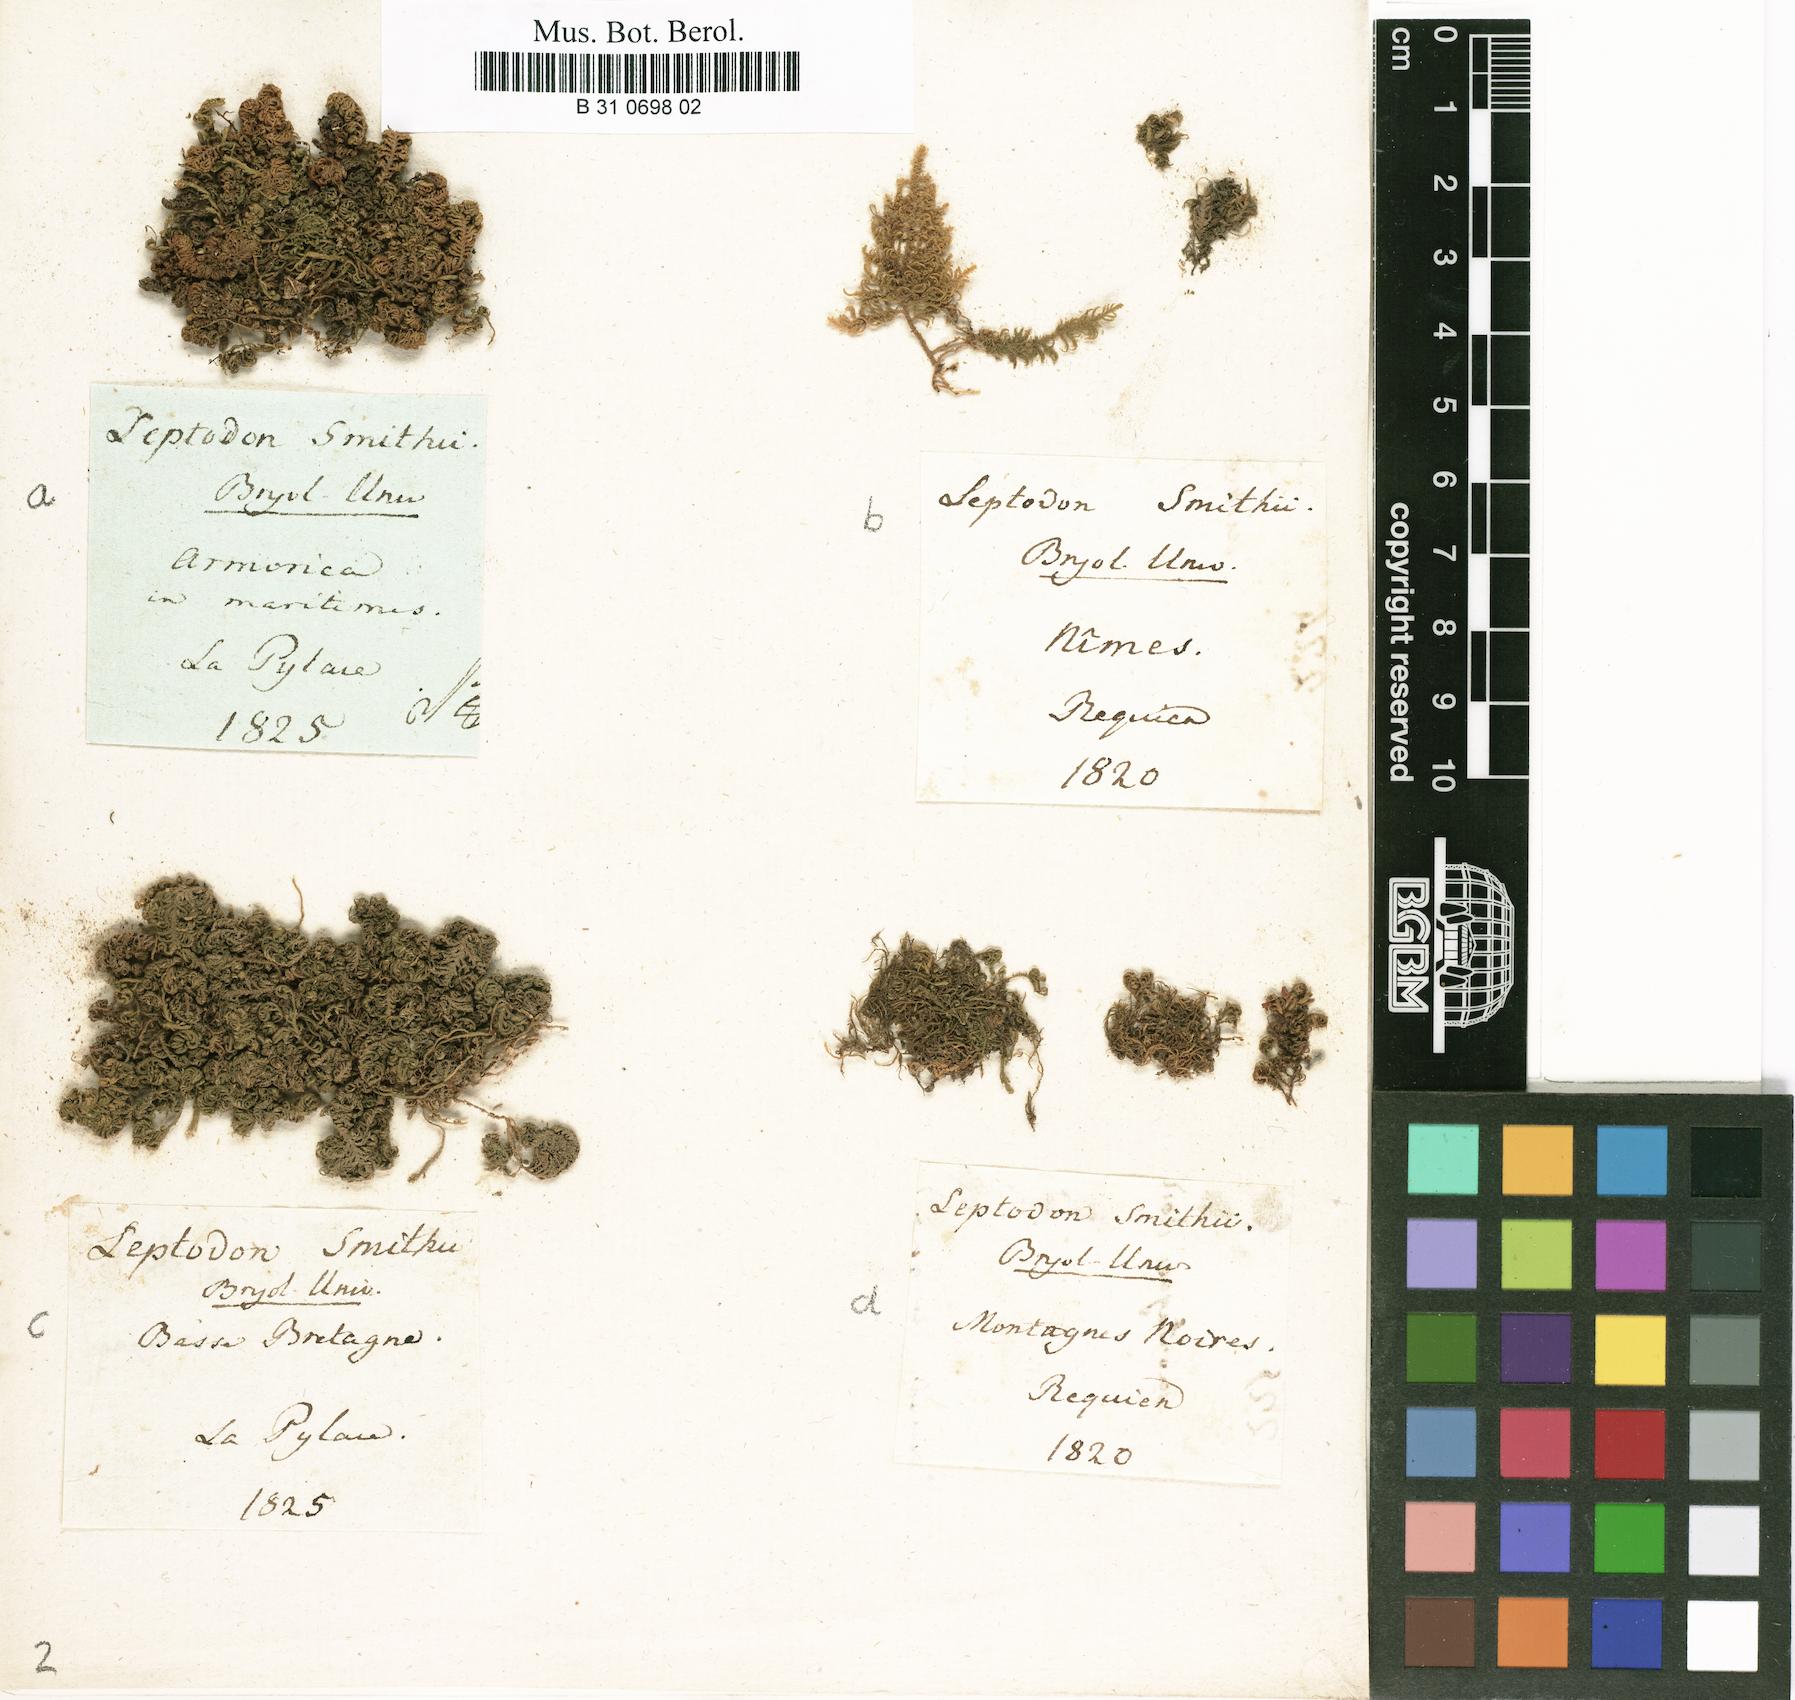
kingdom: Plantae
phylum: Bryophyta
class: Bryopsida
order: Hypnales
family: Neckeraceae
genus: Leptodon
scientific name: Leptodon smithii
